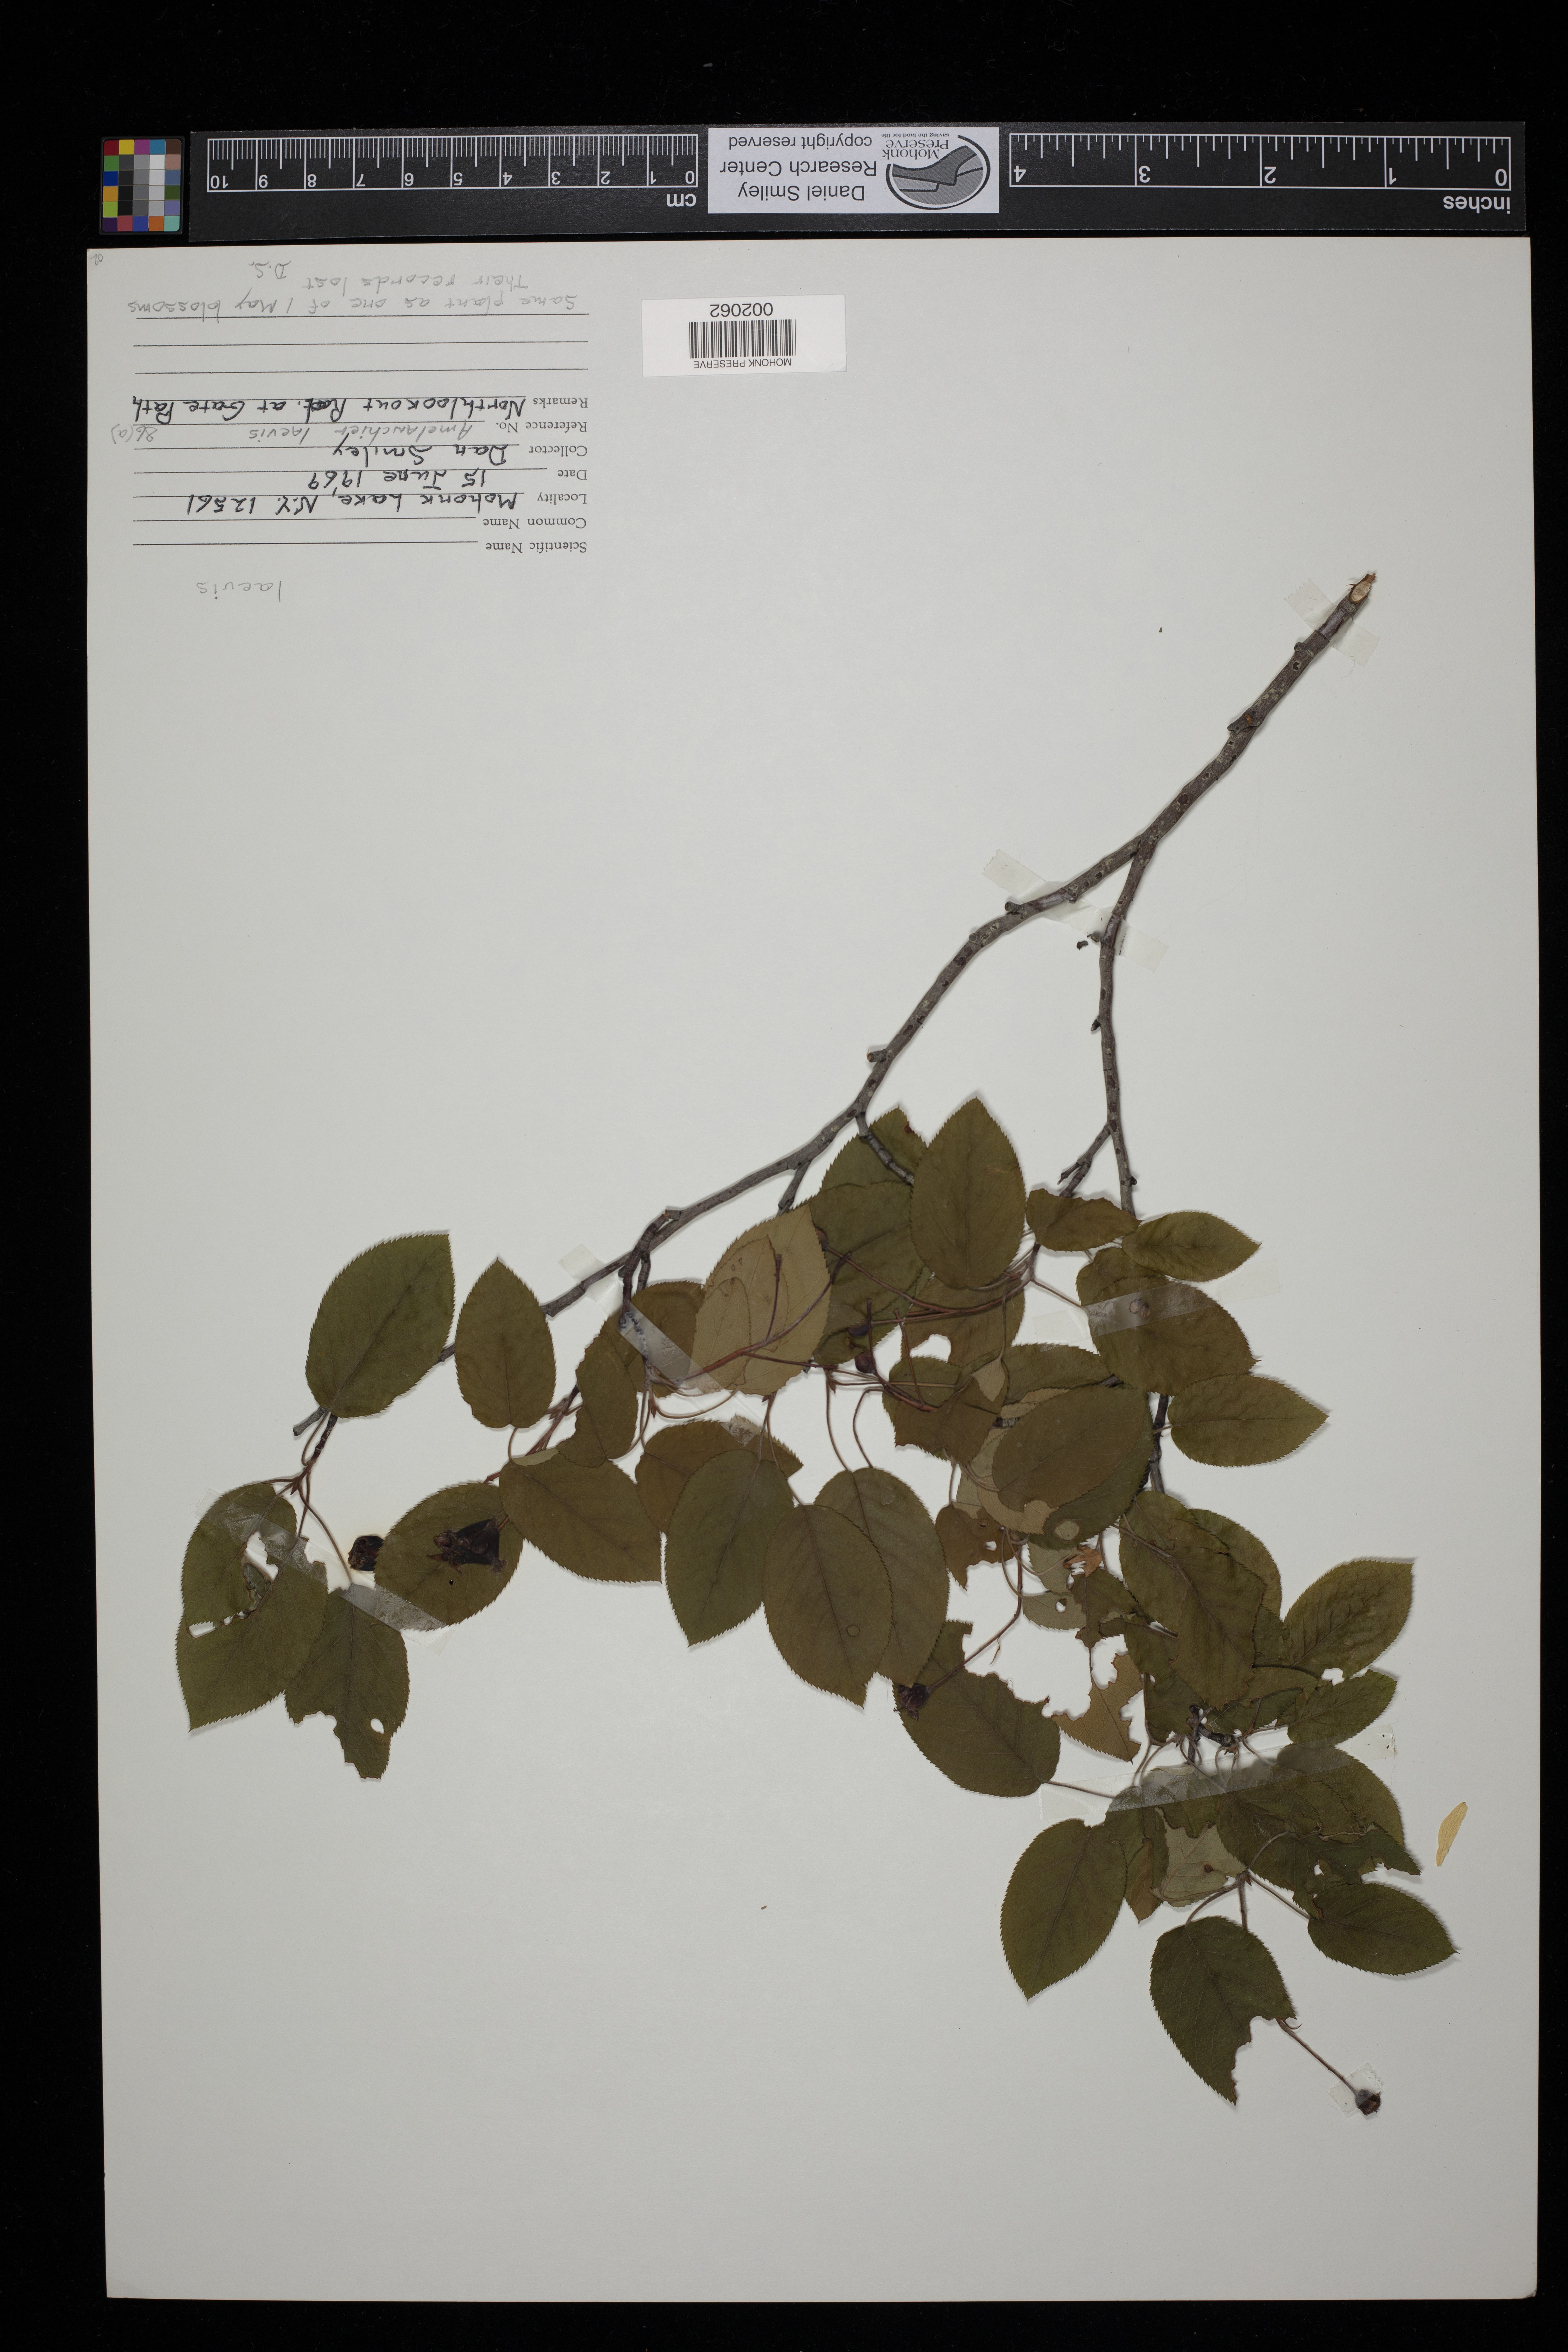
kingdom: Plantae
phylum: Tracheophyta
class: Magnoliopsida
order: Rosales
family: Rosaceae
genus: Amelanchier
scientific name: Amelanchier laevis
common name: Allegheny serviceberry
